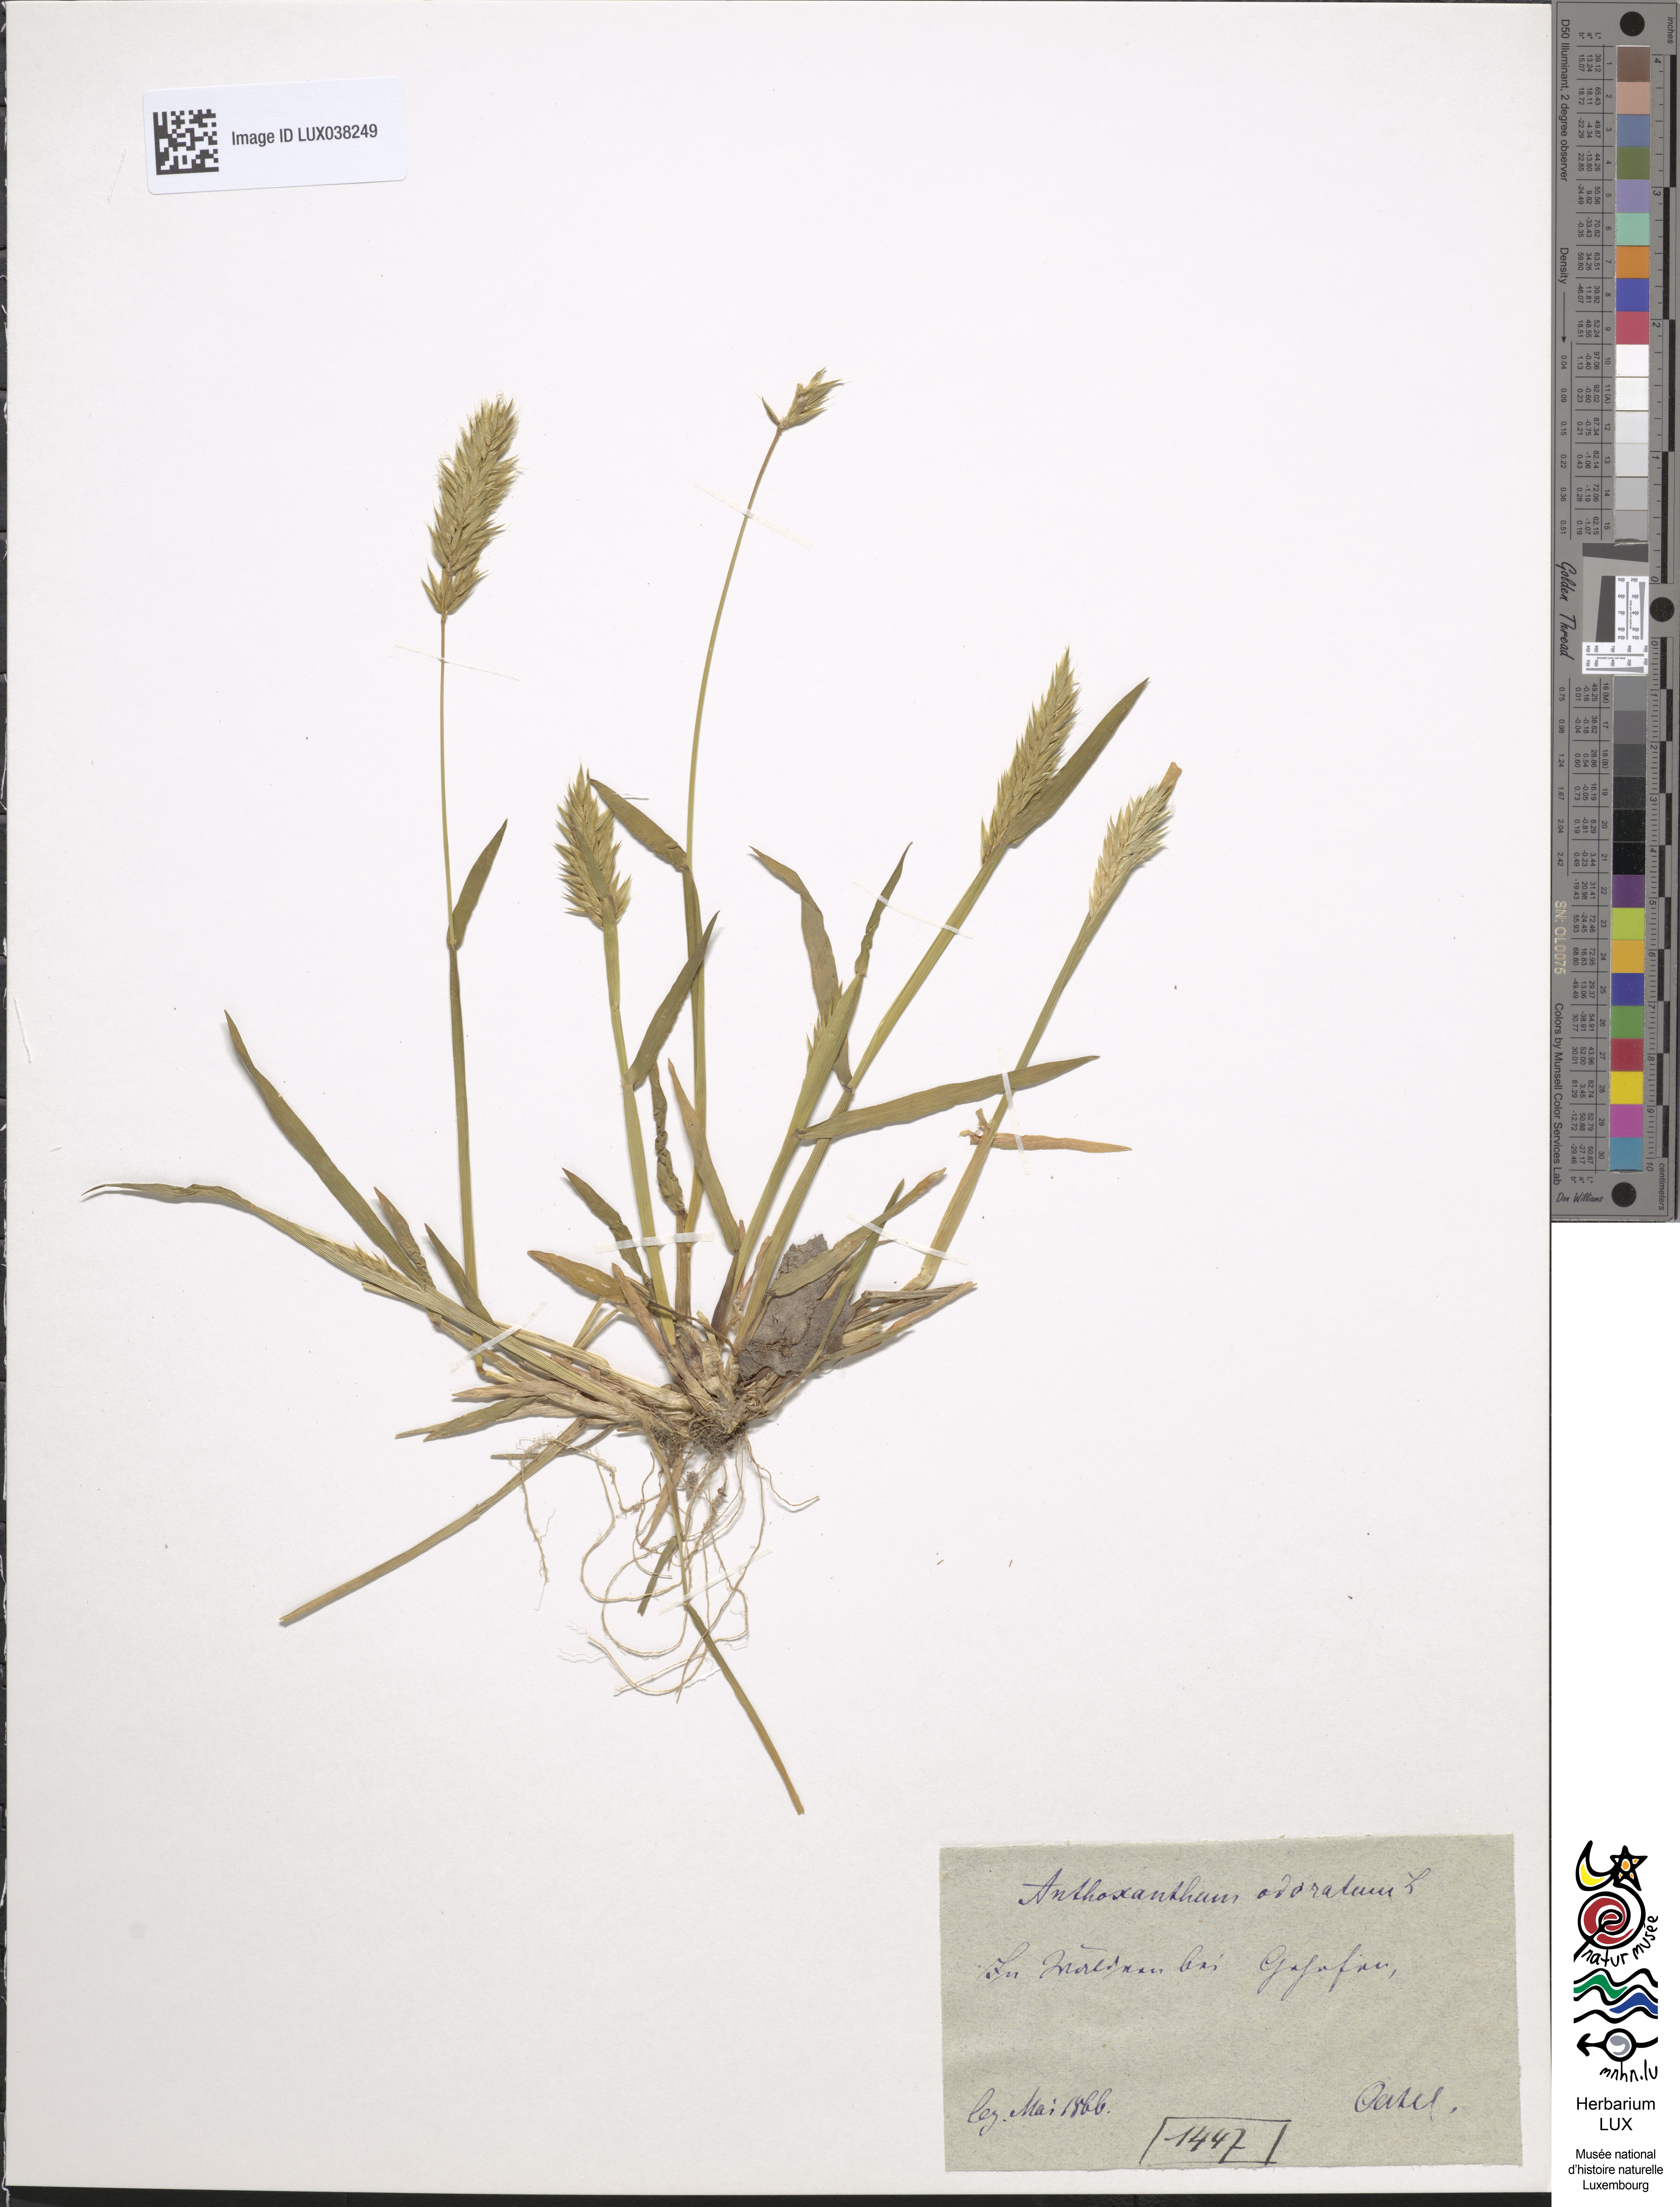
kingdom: Plantae
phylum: Tracheophyta
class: Liliopsida
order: Poales
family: Poaceae
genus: Anthoxanthum
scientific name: Anthoxanthum odoratum
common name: Sweet vernalgrass
